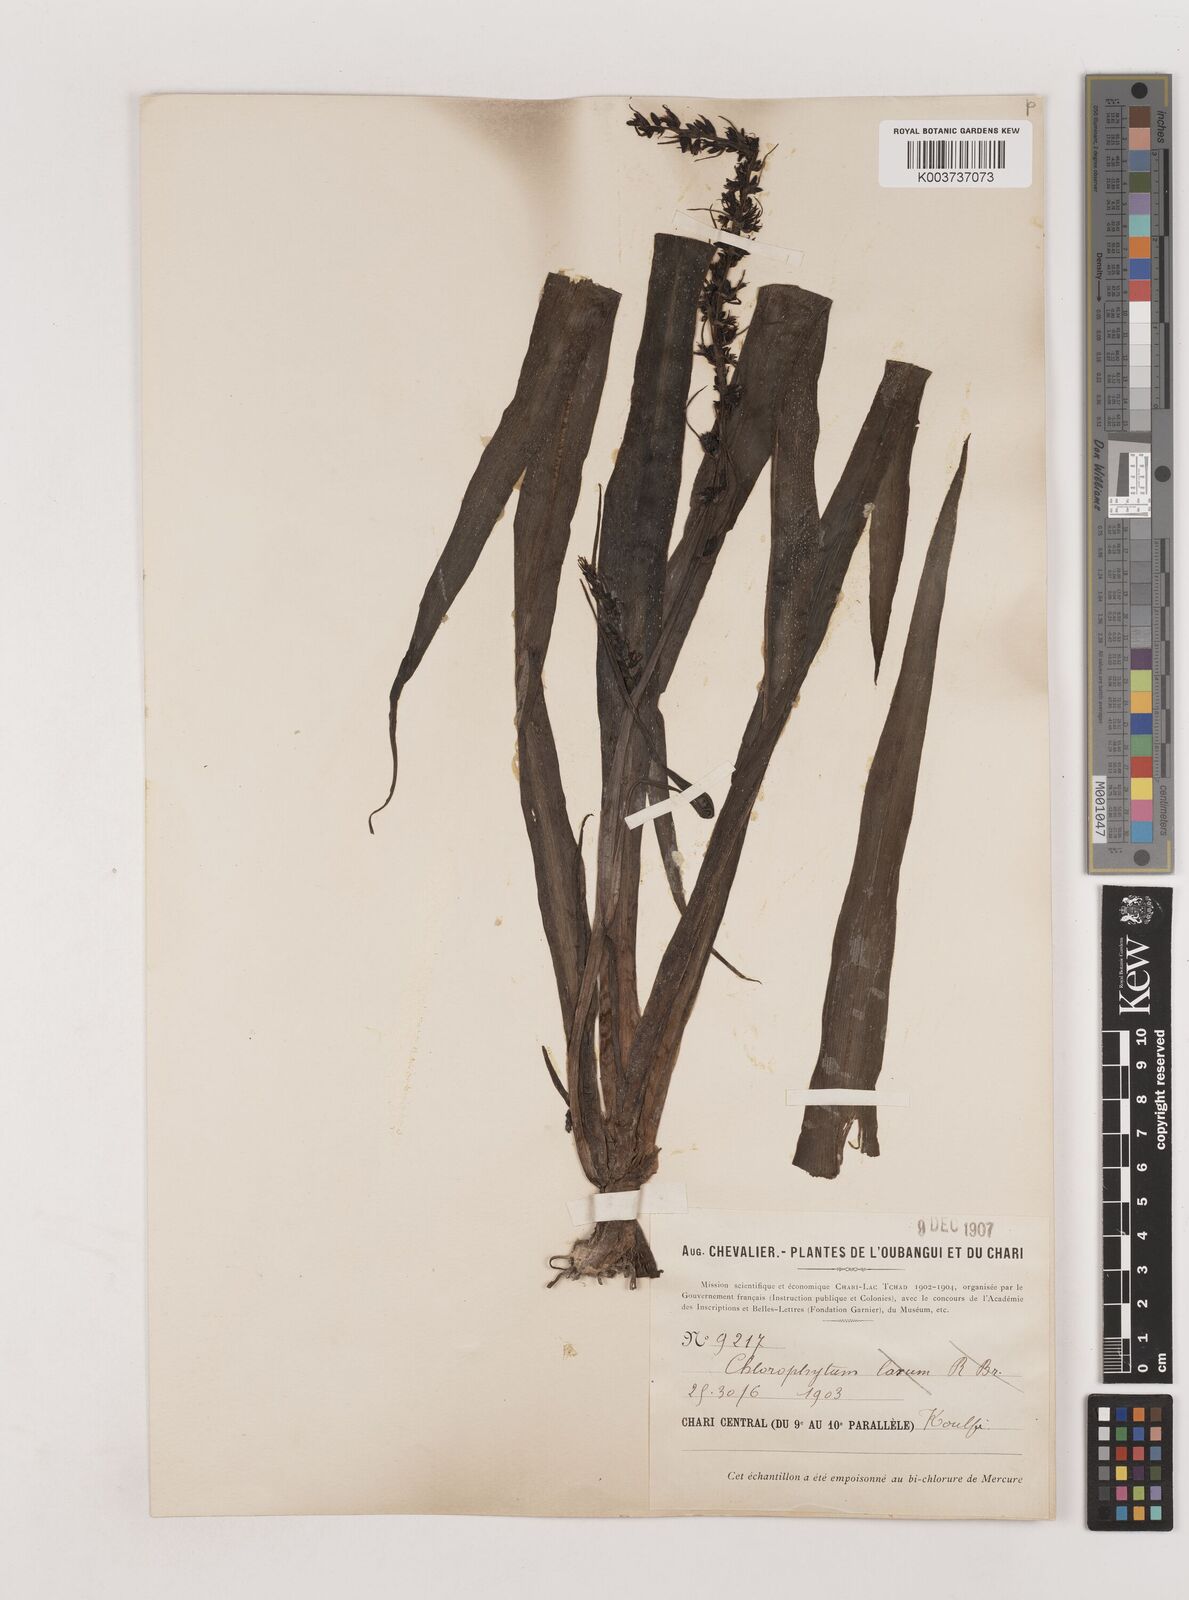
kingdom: Plantae
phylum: Tracheophyta
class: Liliopsida
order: Asparagales
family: Asparagaceae
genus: Chlorophytum
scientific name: Chlorophytum macrophyllum
